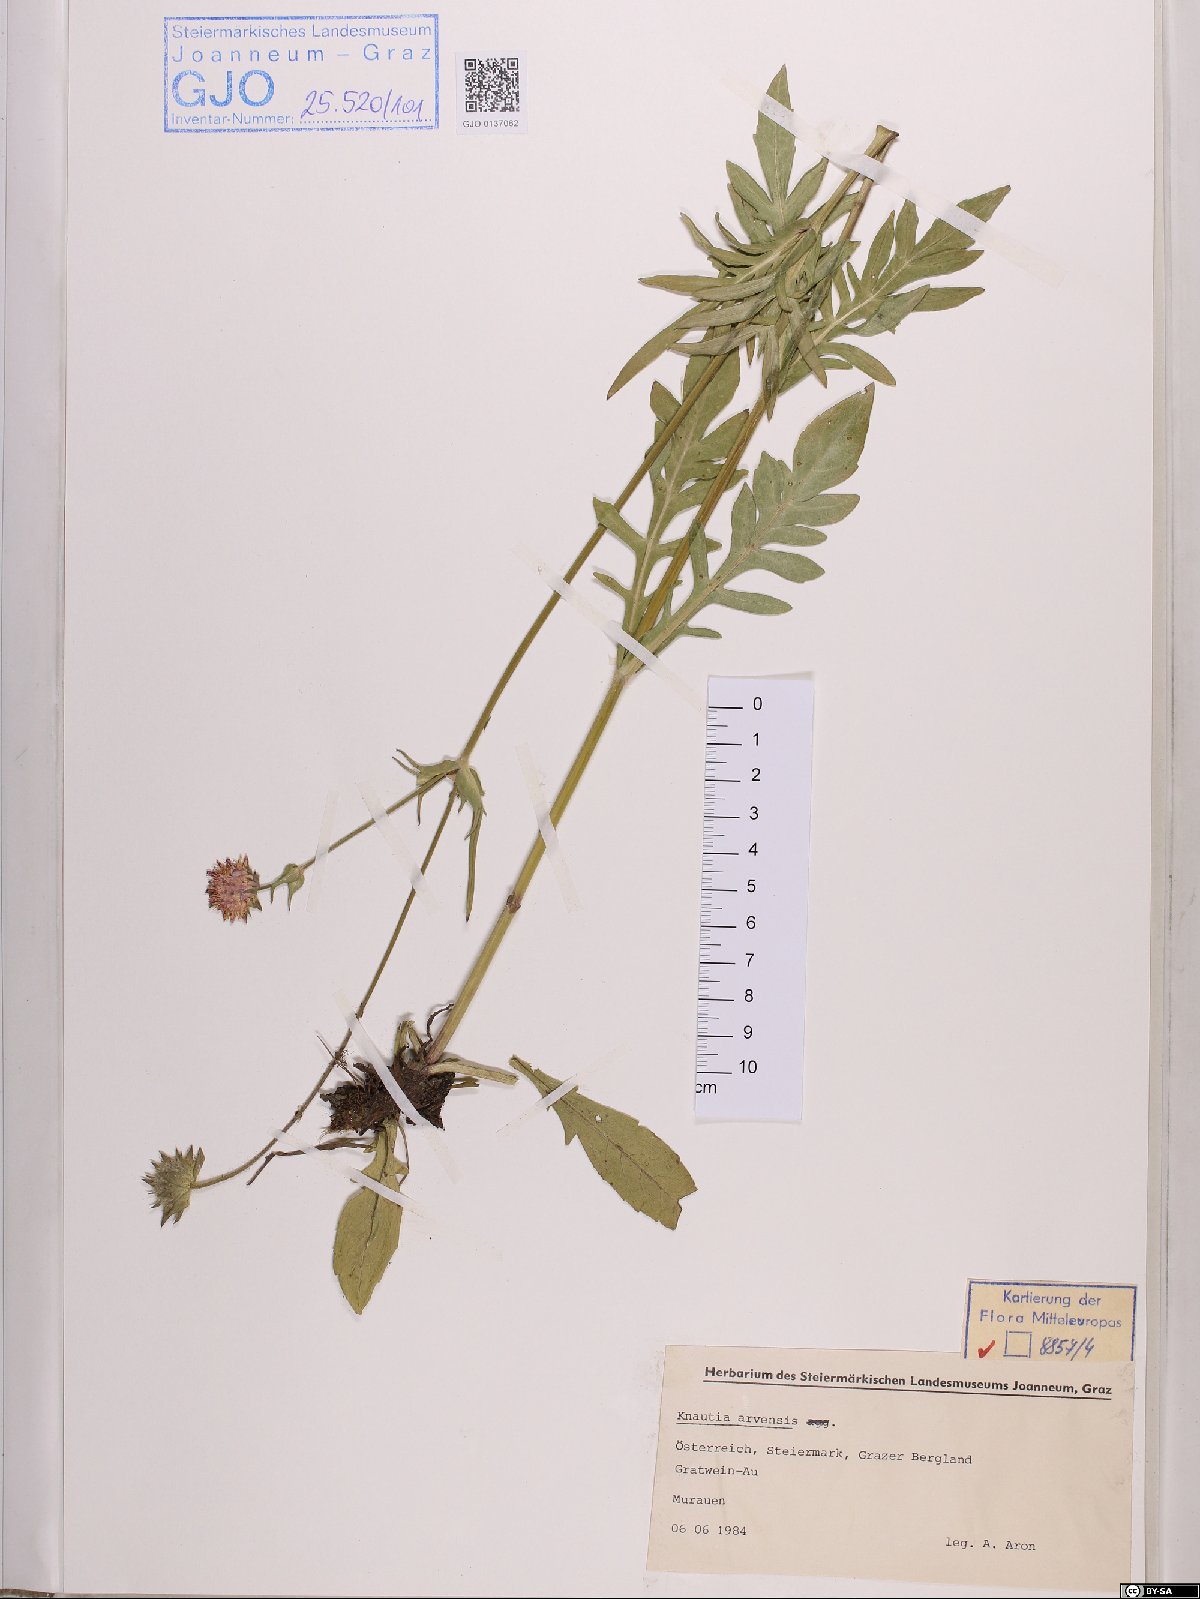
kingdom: Plantae
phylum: Tracheophyta
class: Magnoliopsida
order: Dipsacales
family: Caprifoliaceae
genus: Knautia
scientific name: Knautia arvensis
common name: Field scabiosa
